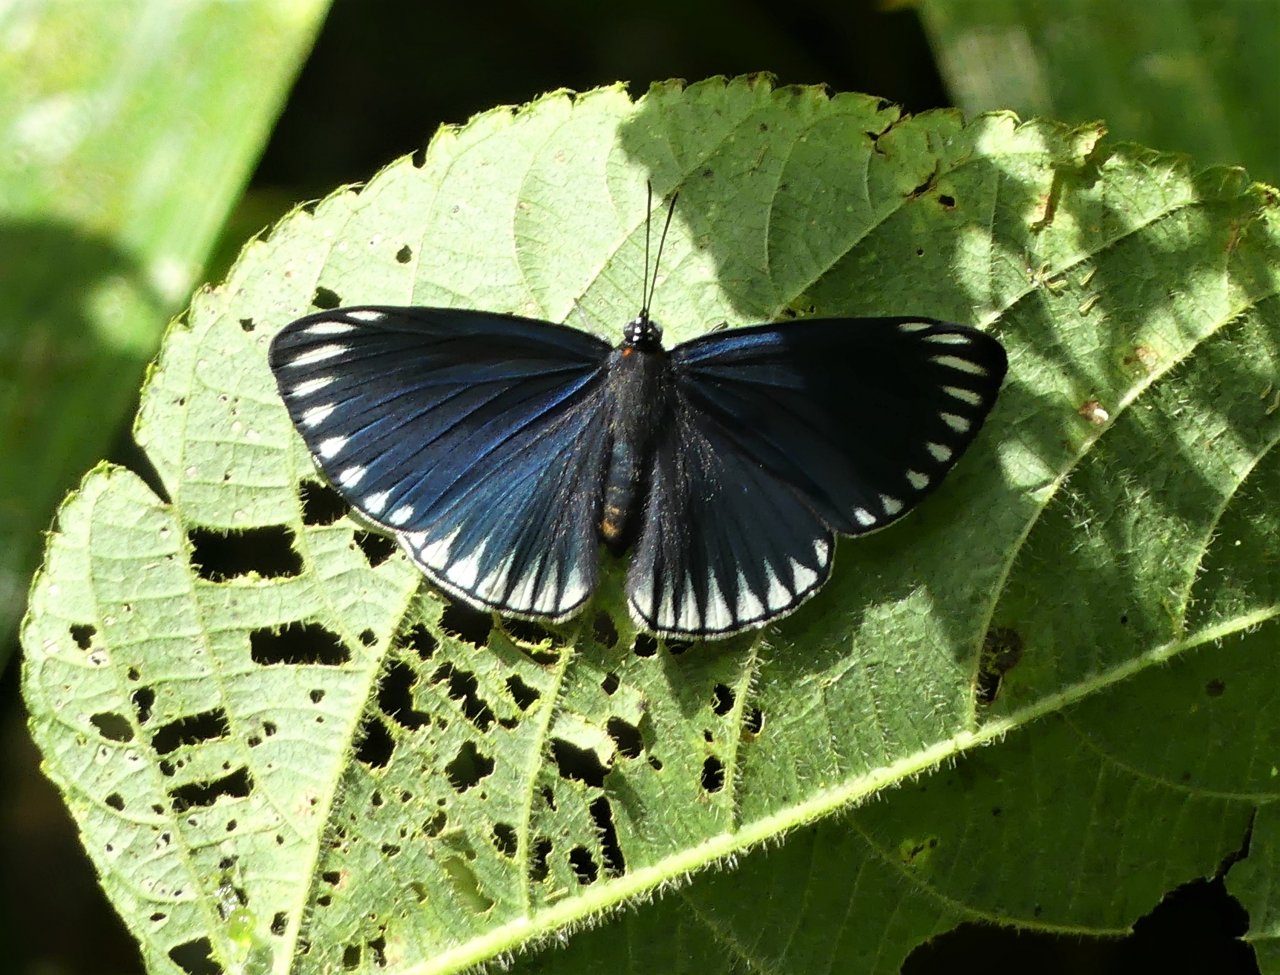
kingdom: Animalia
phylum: Arthropoda
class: Insecta
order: Lepidoptera
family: Lycaenidae
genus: Necyria
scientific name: Necyria duellona
